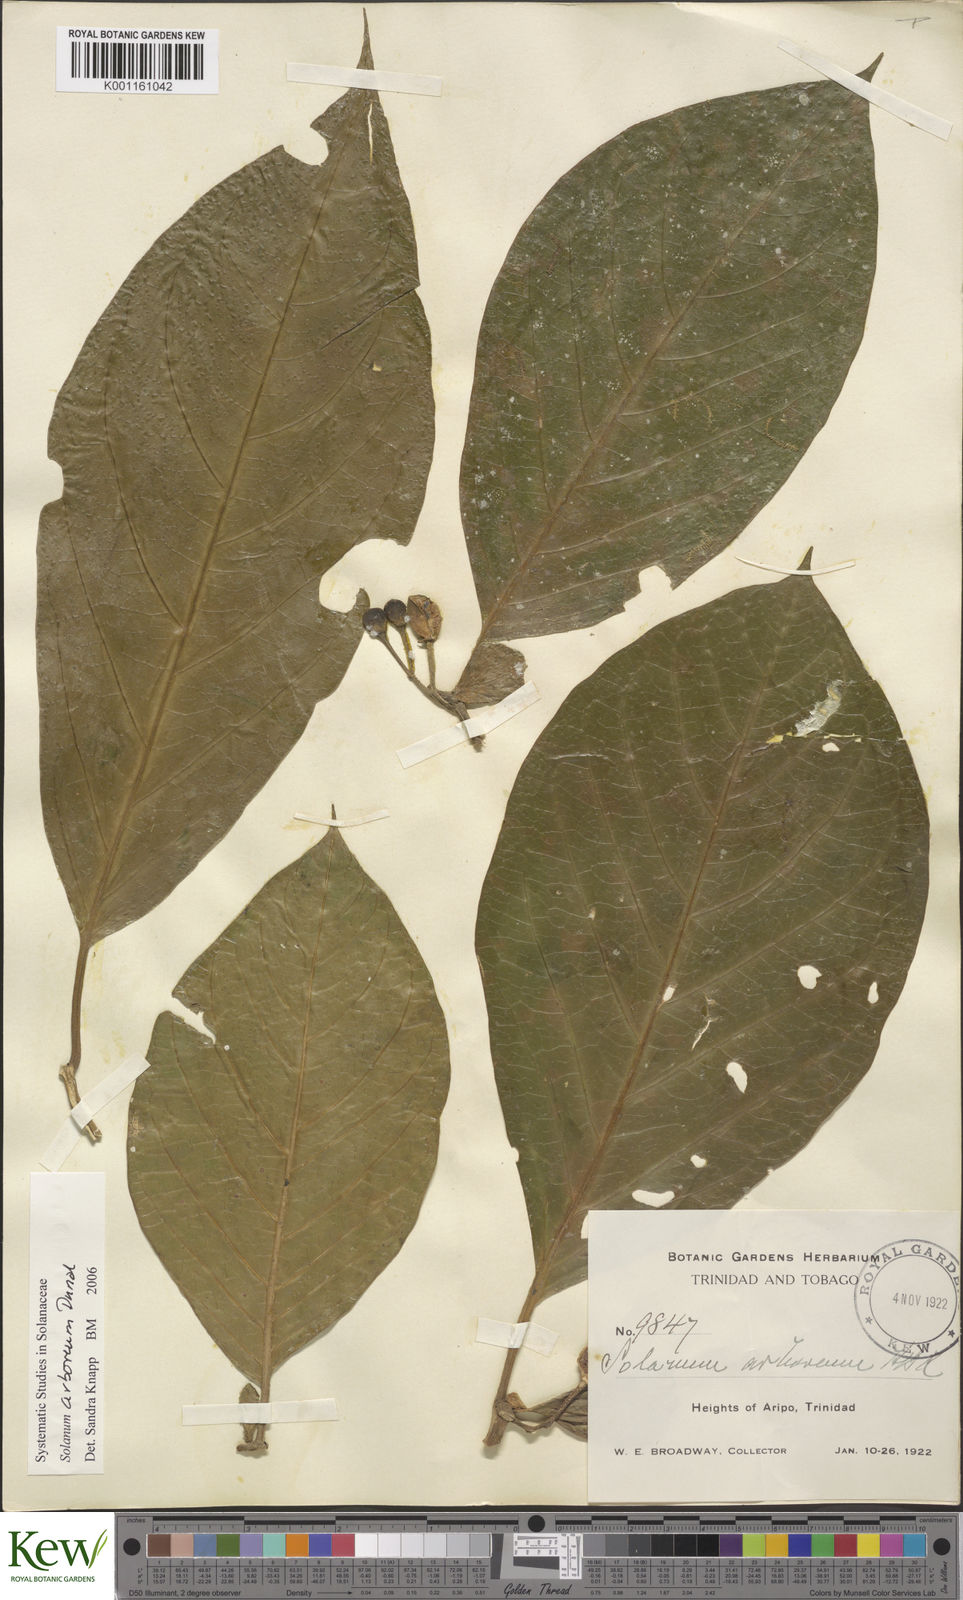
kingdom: Plantae
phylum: Tracheophyta
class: Magnoliopsida
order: Solanales
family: Solanaceae
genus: Solanum
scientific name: Solanum arboreum
